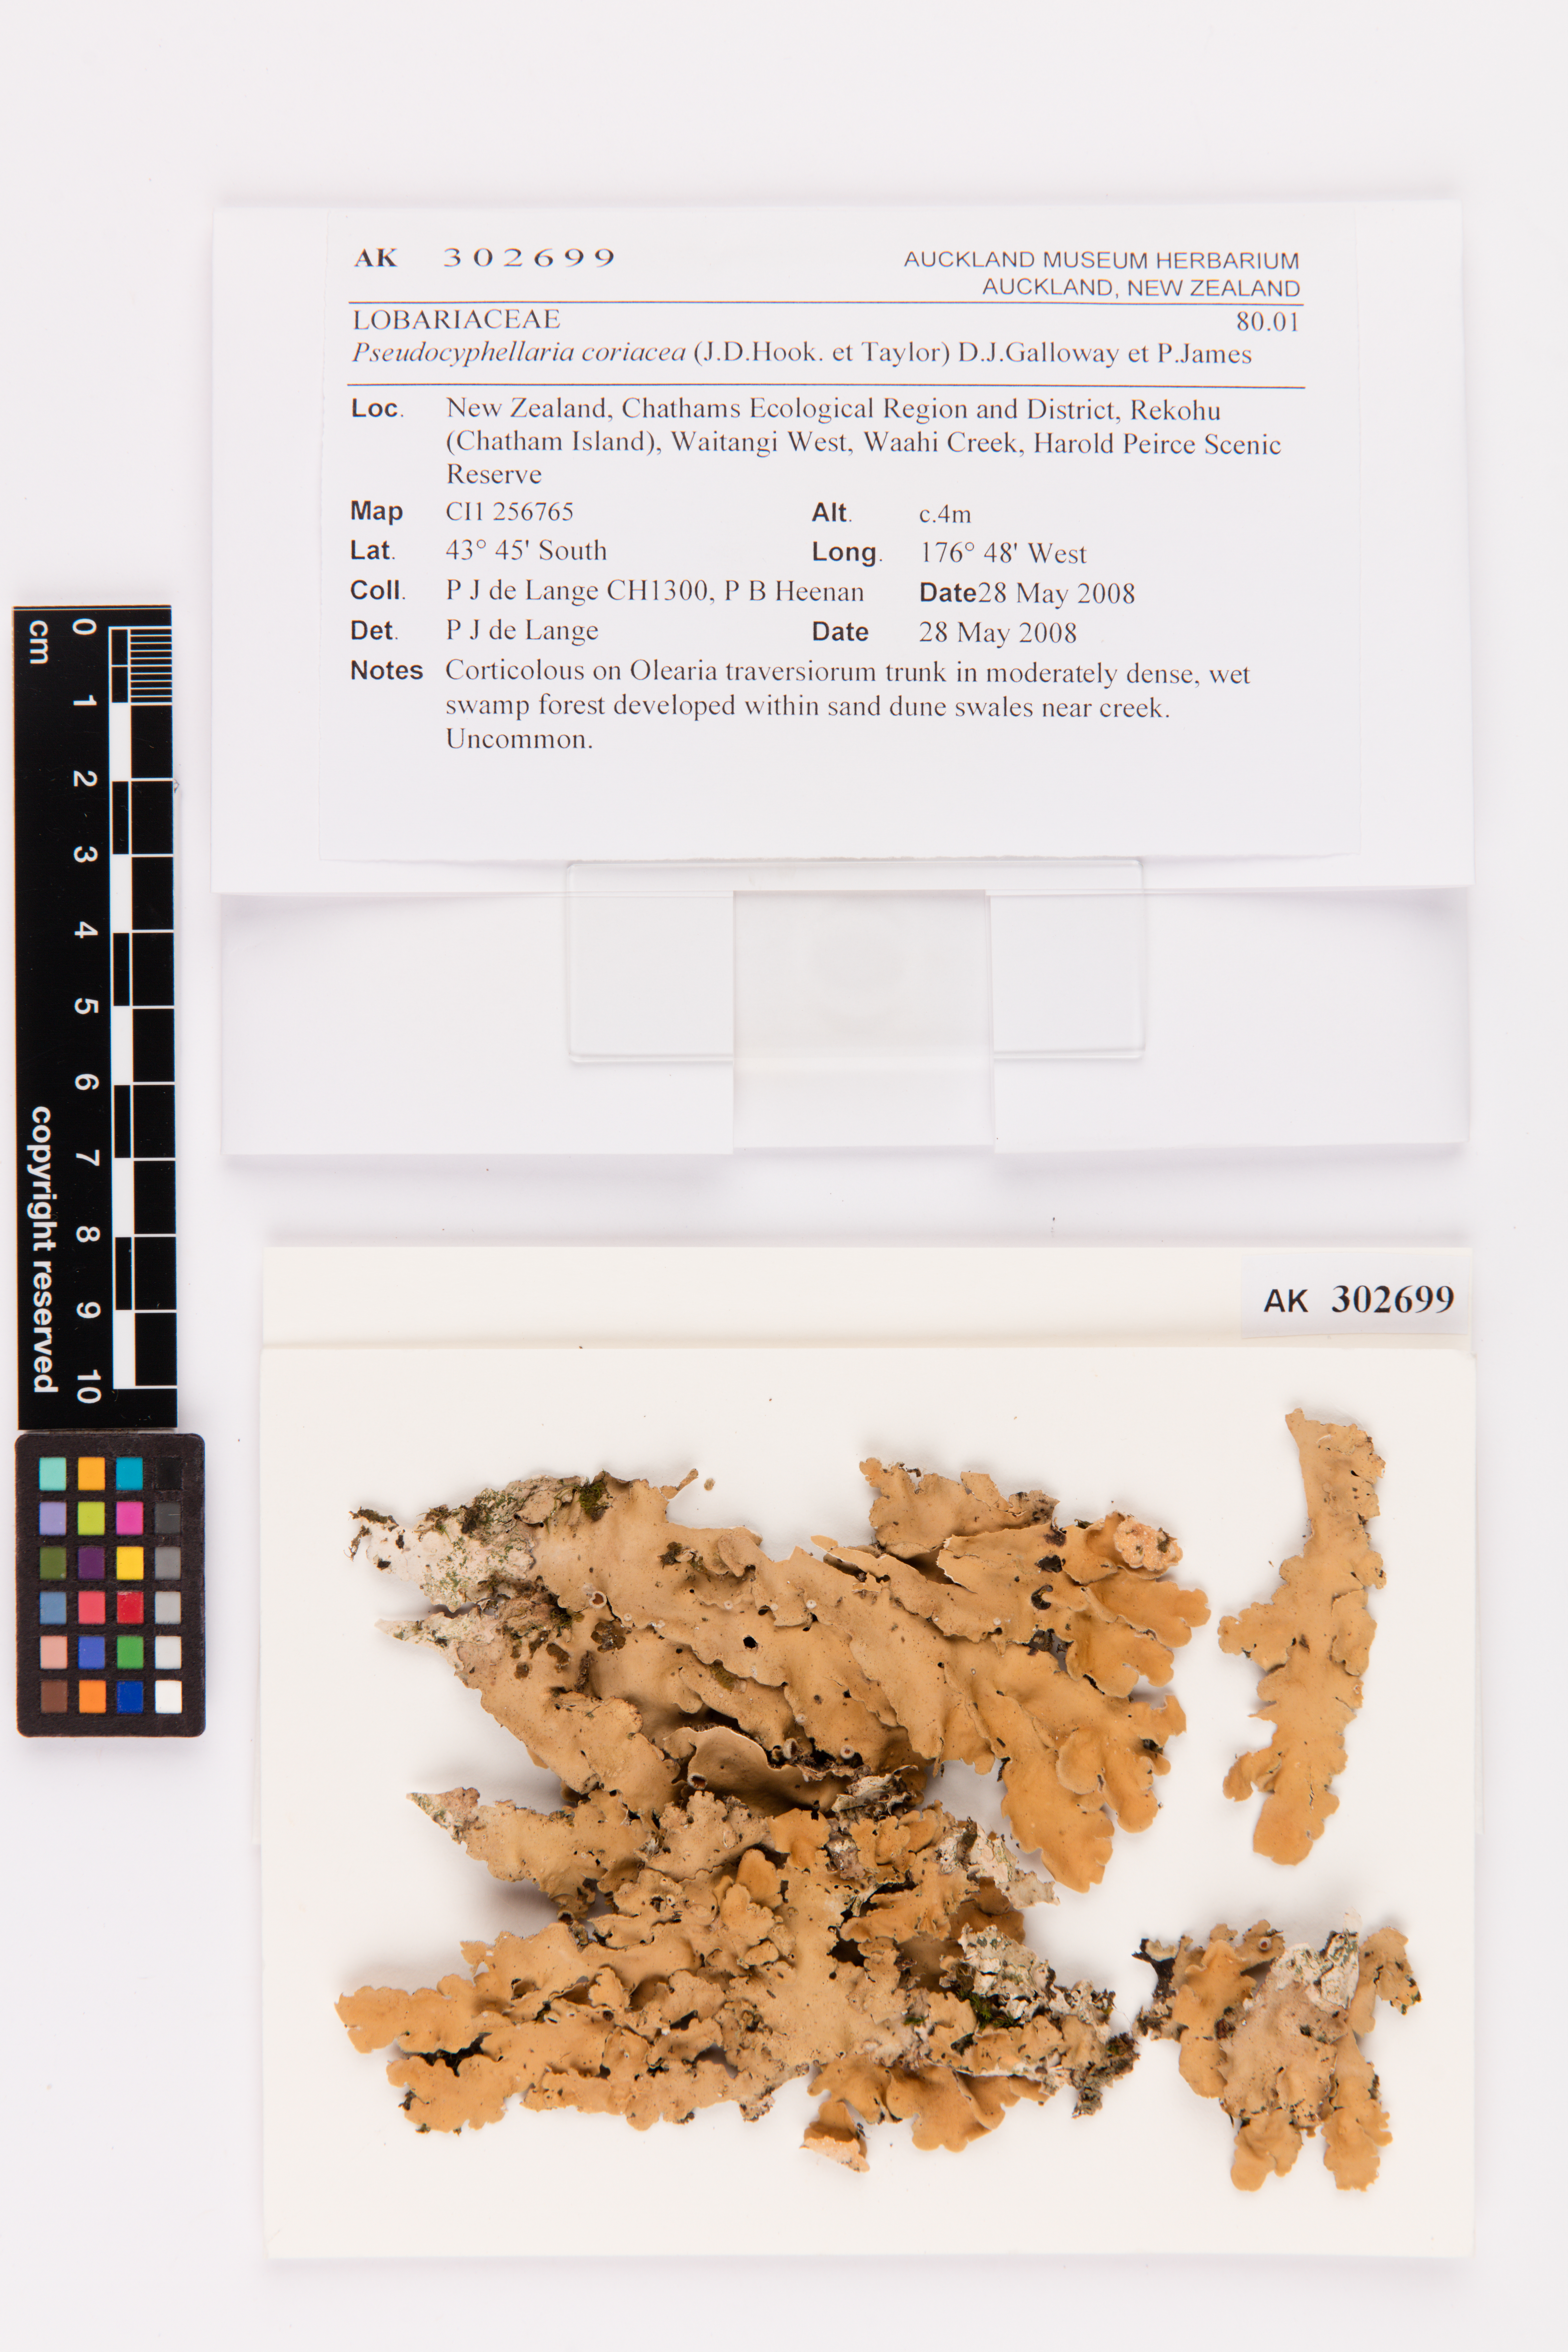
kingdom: Fungi
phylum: Ascomycota
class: Lecanoromycetes
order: Peltigerales
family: Lobariaceae
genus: Pseudocyphellaria
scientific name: Pseudocyphellaria coriacea
